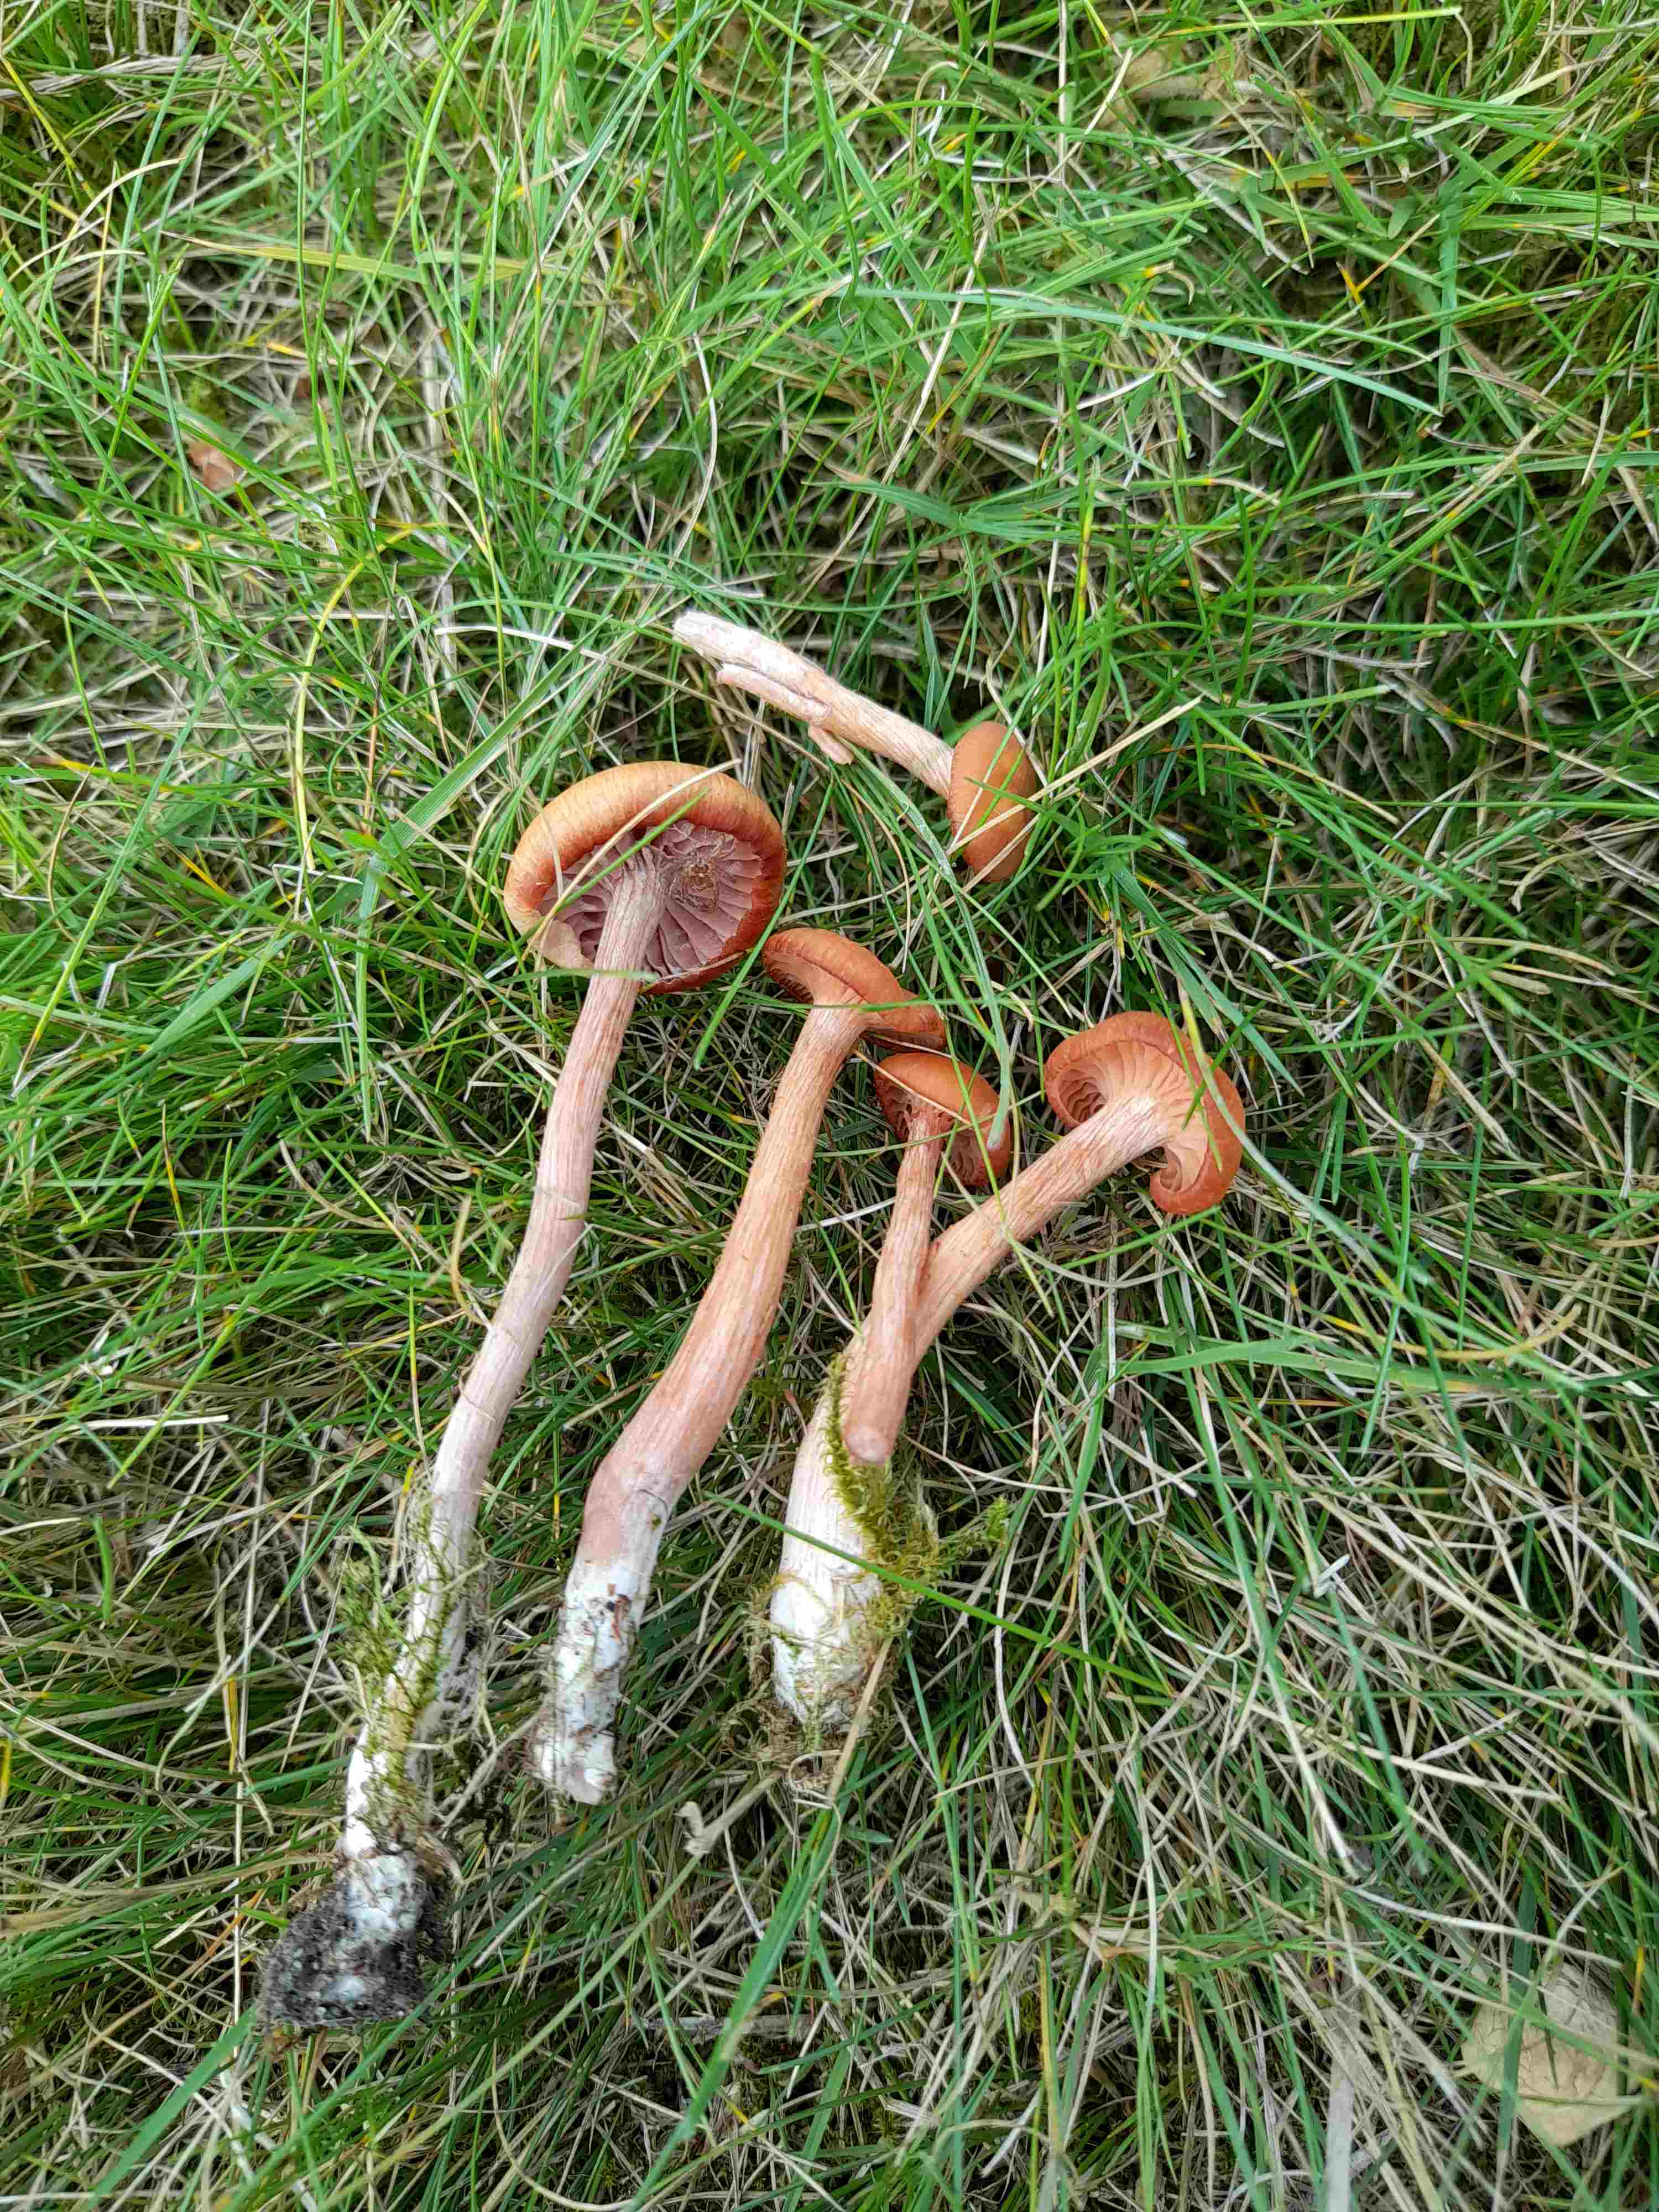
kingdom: Fungi
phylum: Basidiomycota
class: Agaricomycetes
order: Agaricales
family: Hydnangiaceae
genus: Laccaria
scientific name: Laccaria proxima
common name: stor ametysthat
